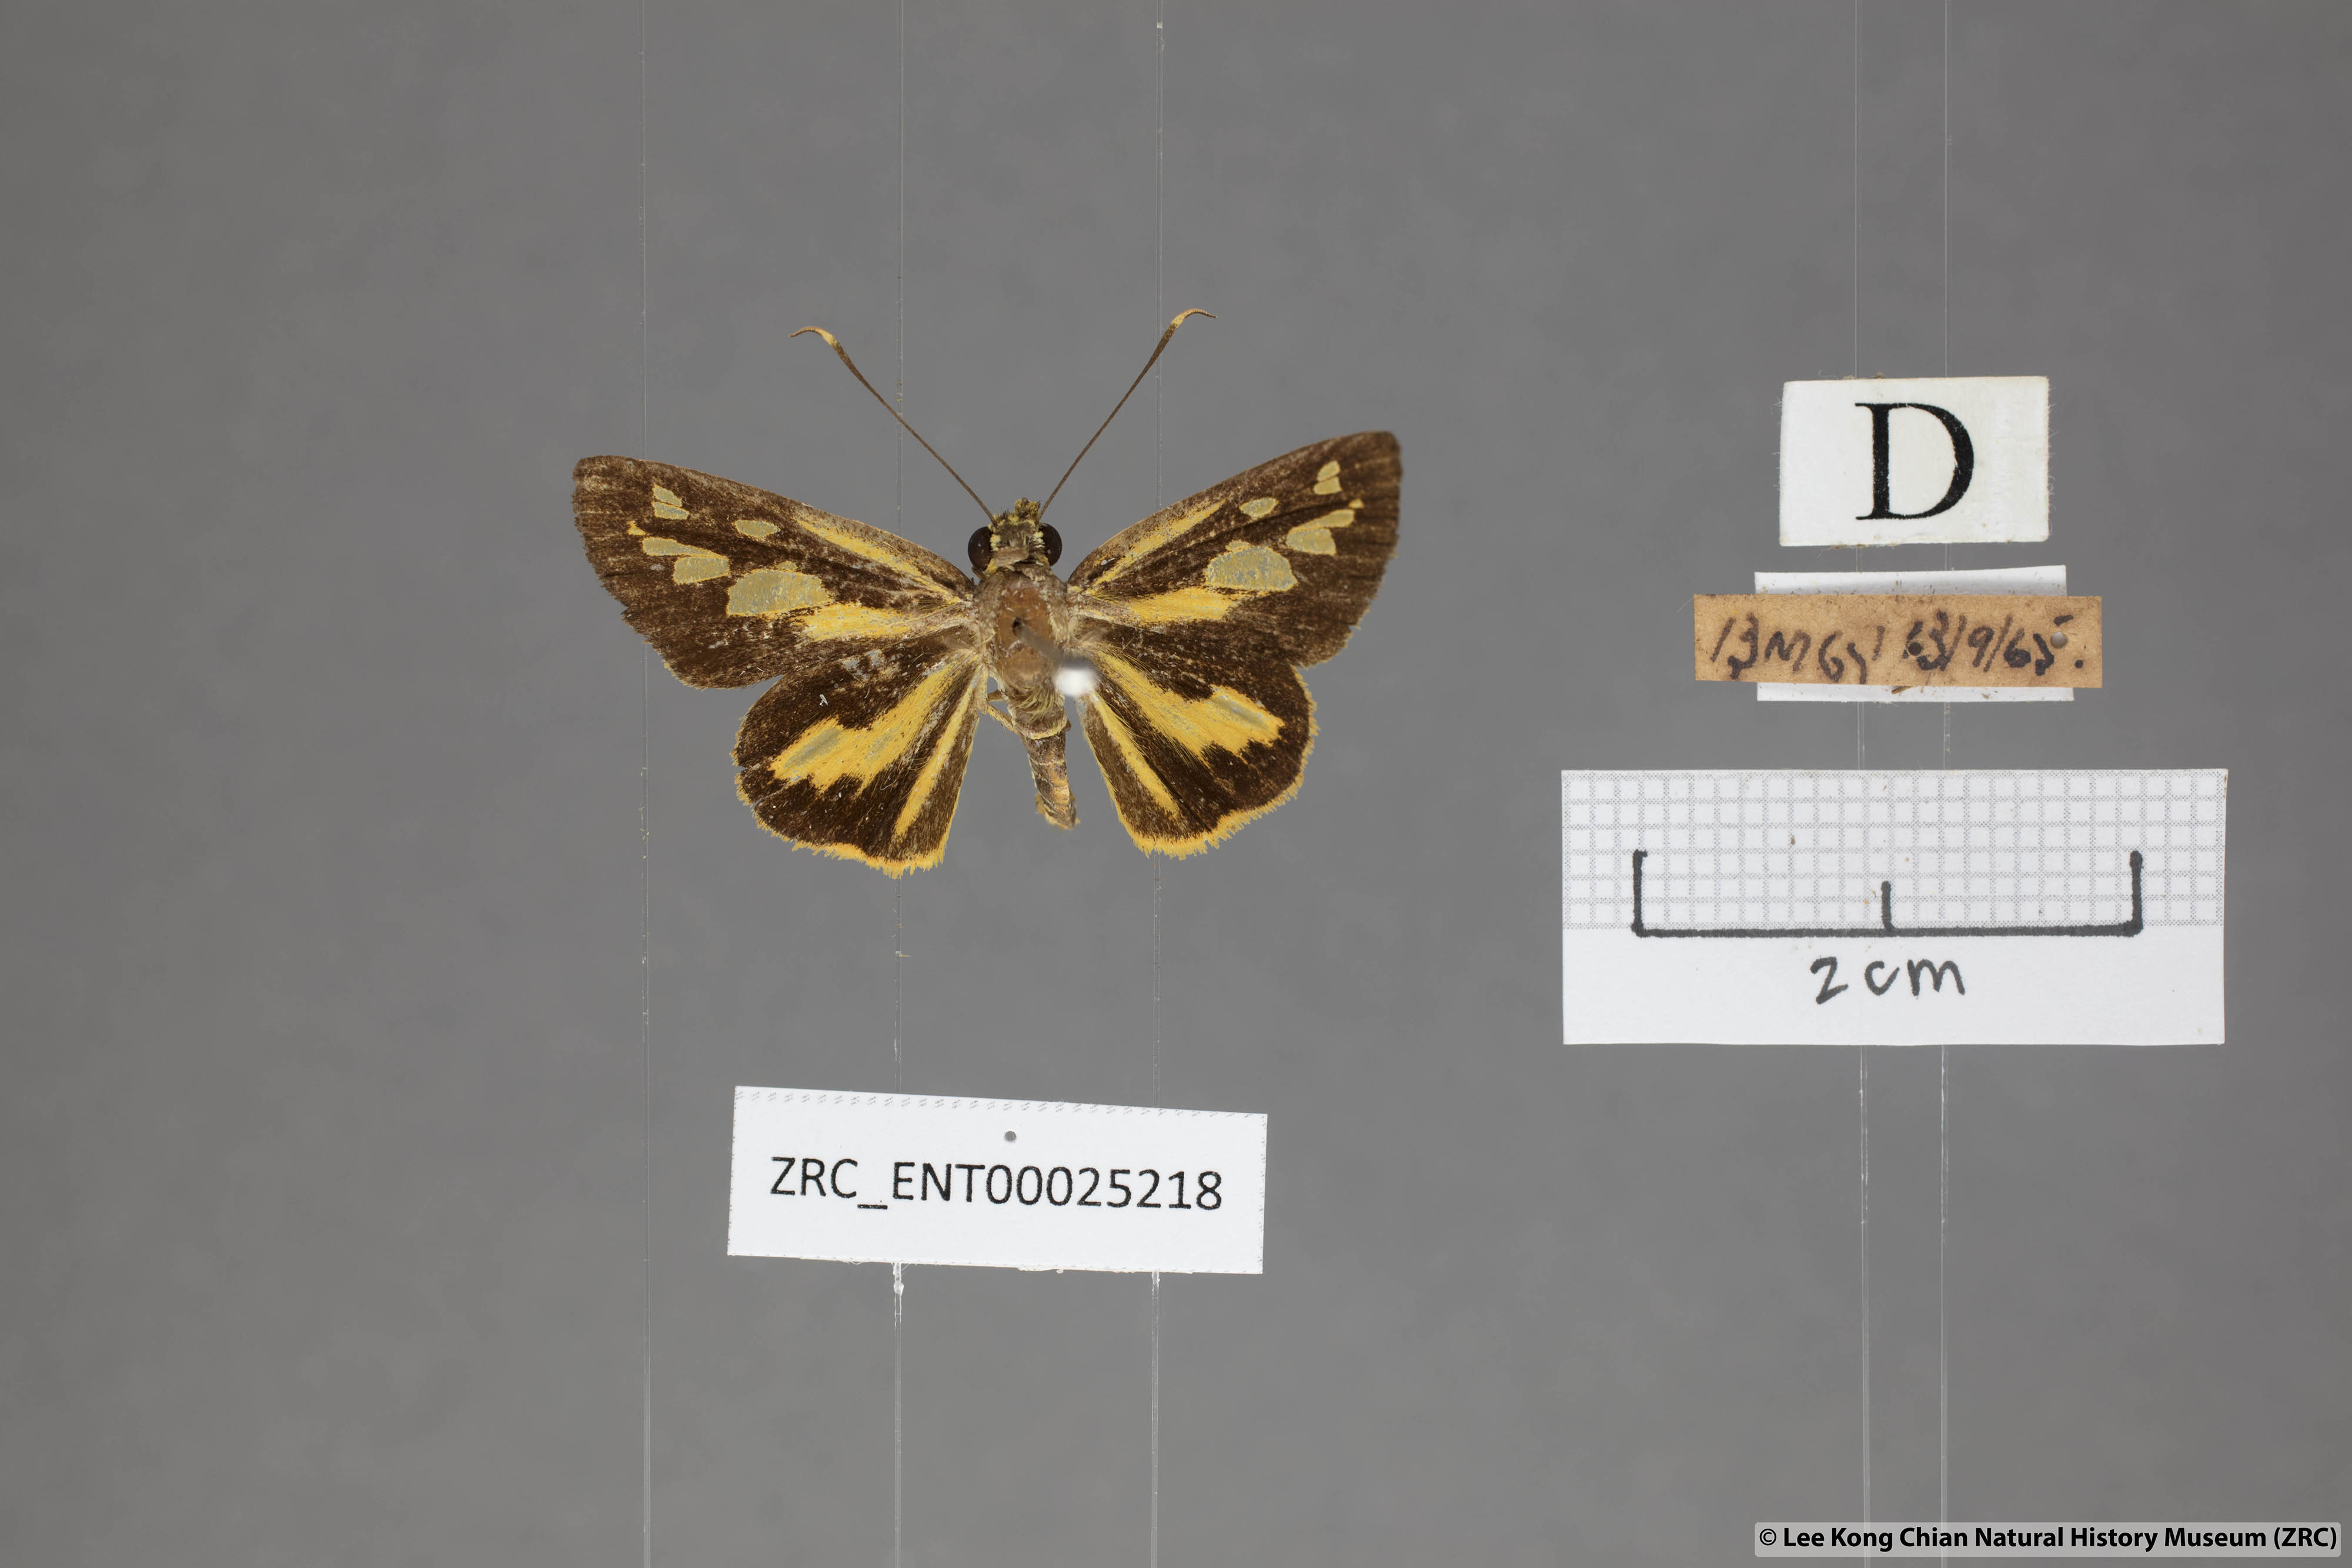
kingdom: Animalia
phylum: Arthropoda
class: Insecta
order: Lepidoptera
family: Hesperiidae
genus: Pyroneura
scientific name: Pyroneura flavia
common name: Lesser lancer
